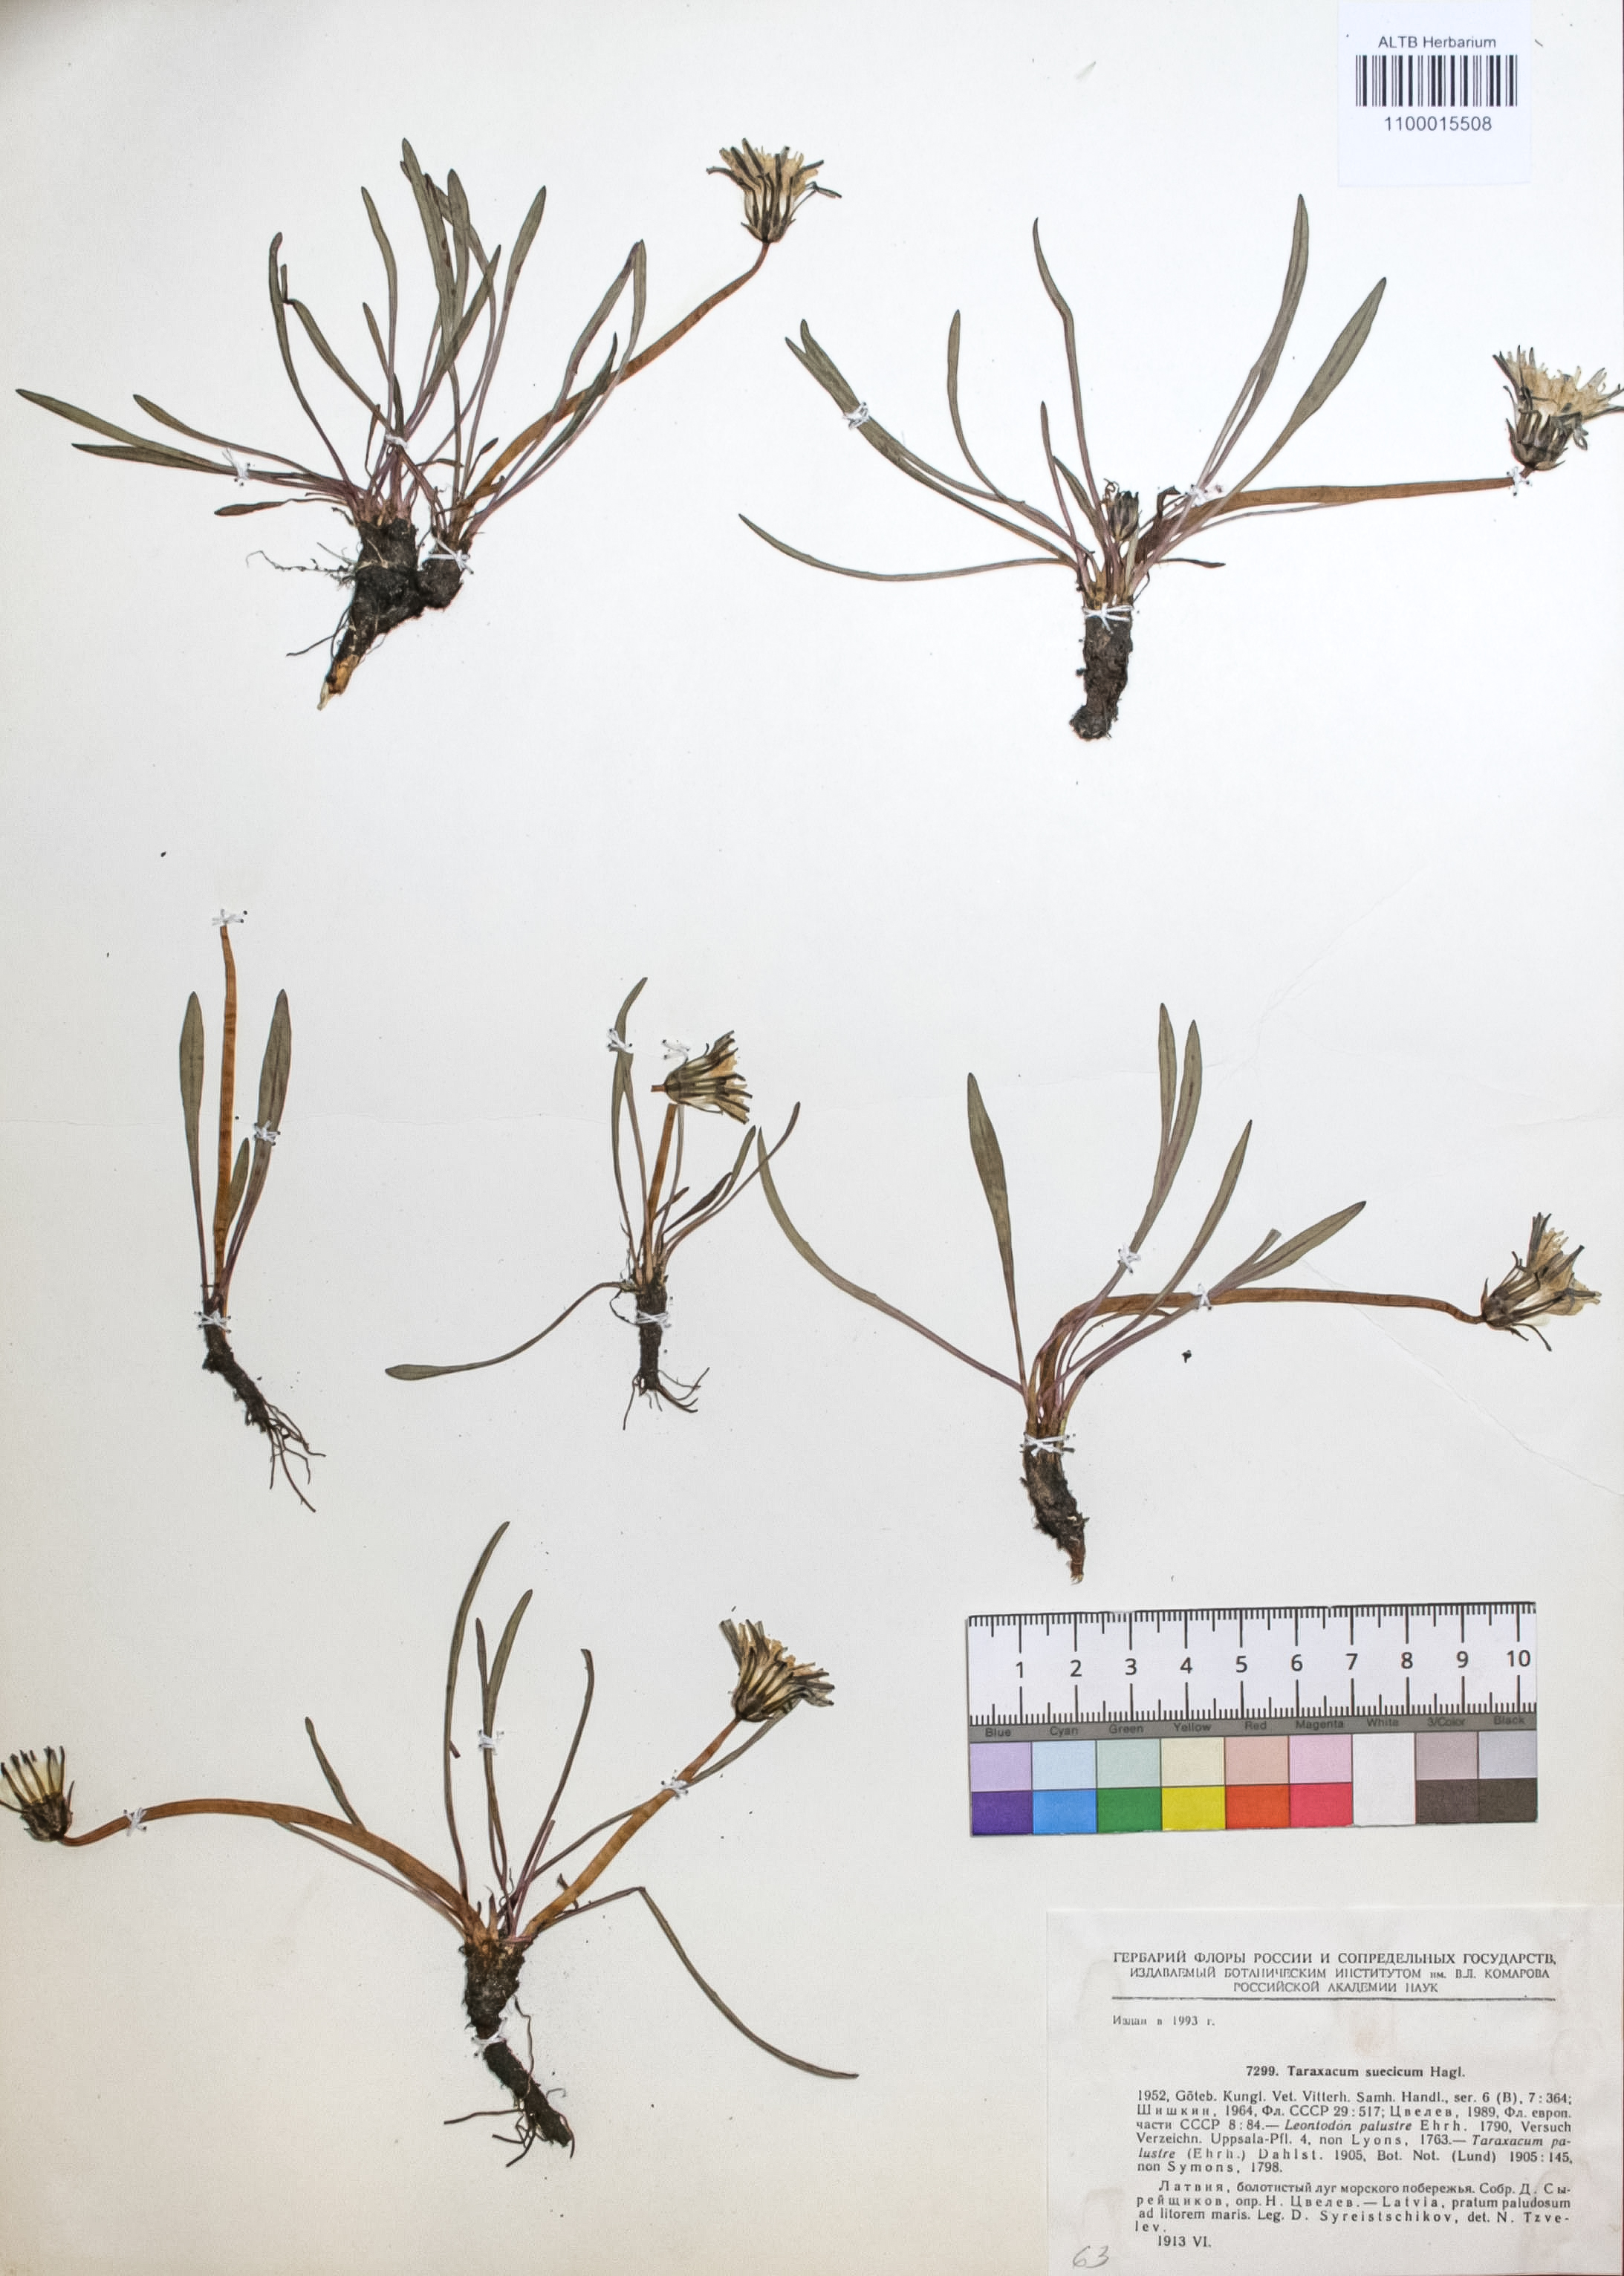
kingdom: Plantae
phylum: Tracheophyta
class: Magnoliopsida
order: Asterales
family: Asteraceae
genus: Taraxacum
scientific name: Taraxacum suecicum
